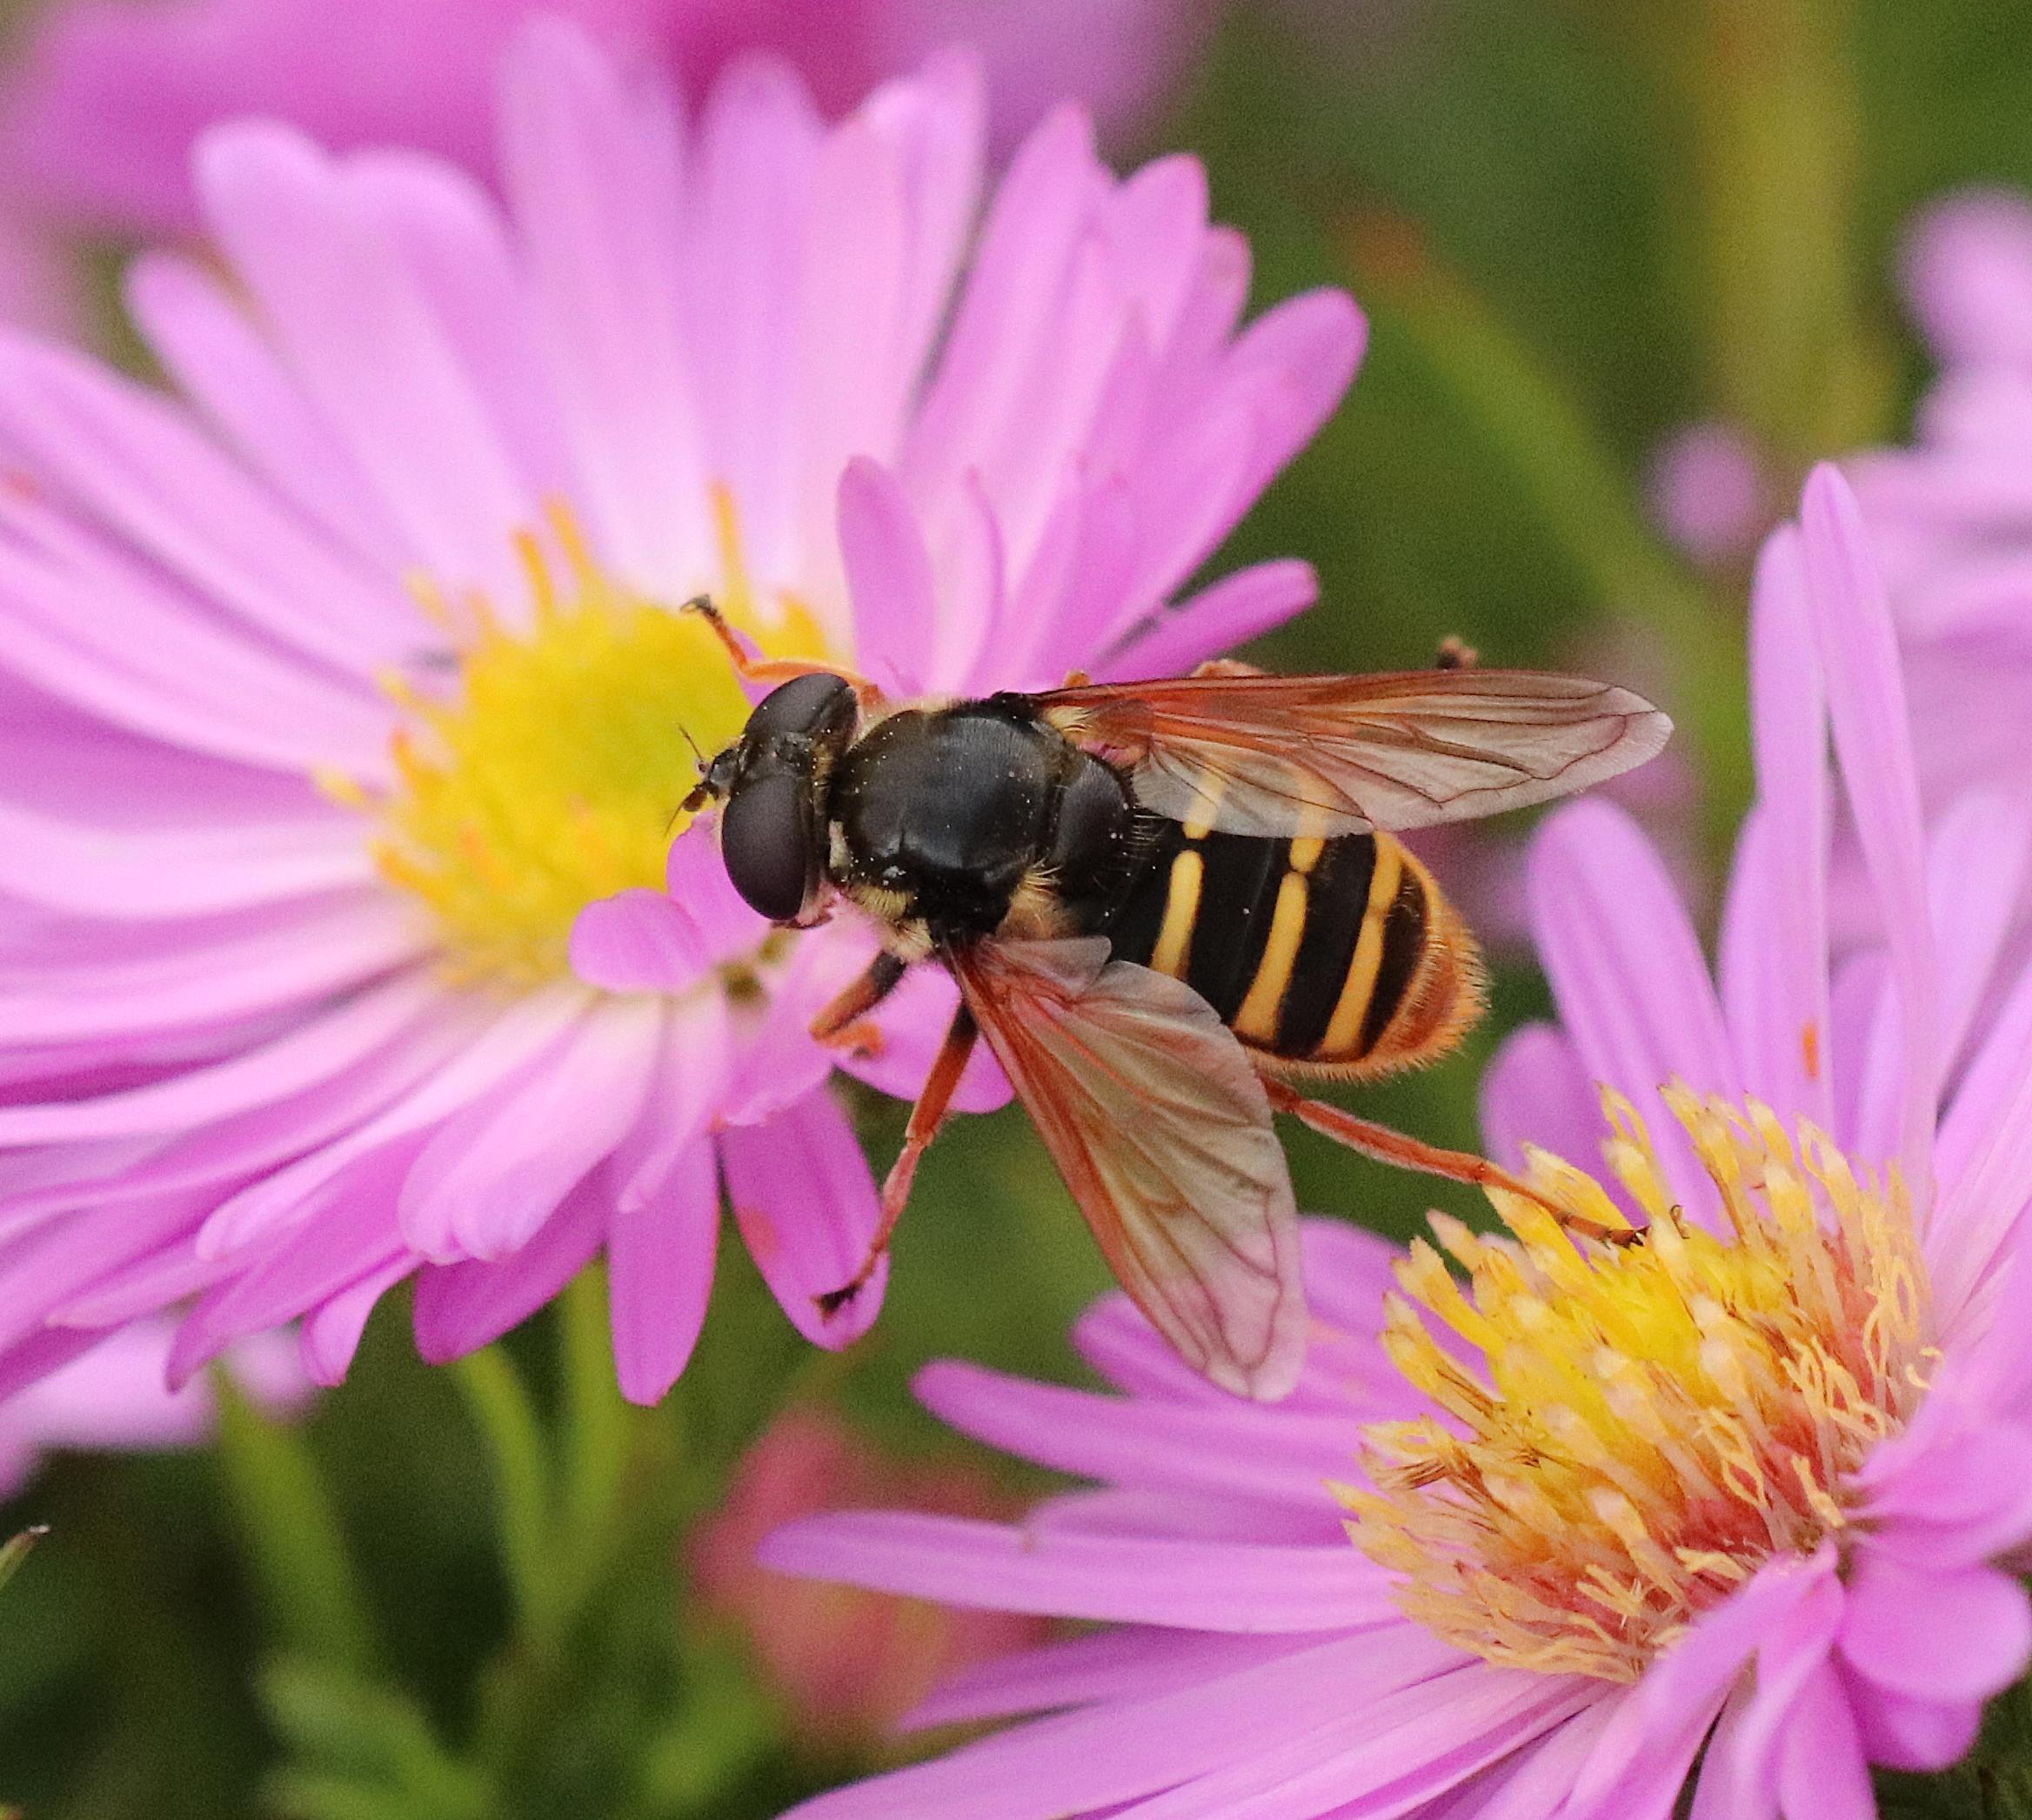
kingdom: Animalia
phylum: Arthropoda
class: Insecta
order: Diptera
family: Syrphidae
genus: Sericomyia
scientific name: Sericomyia silentis
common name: Tørve-silkesvirreflue
